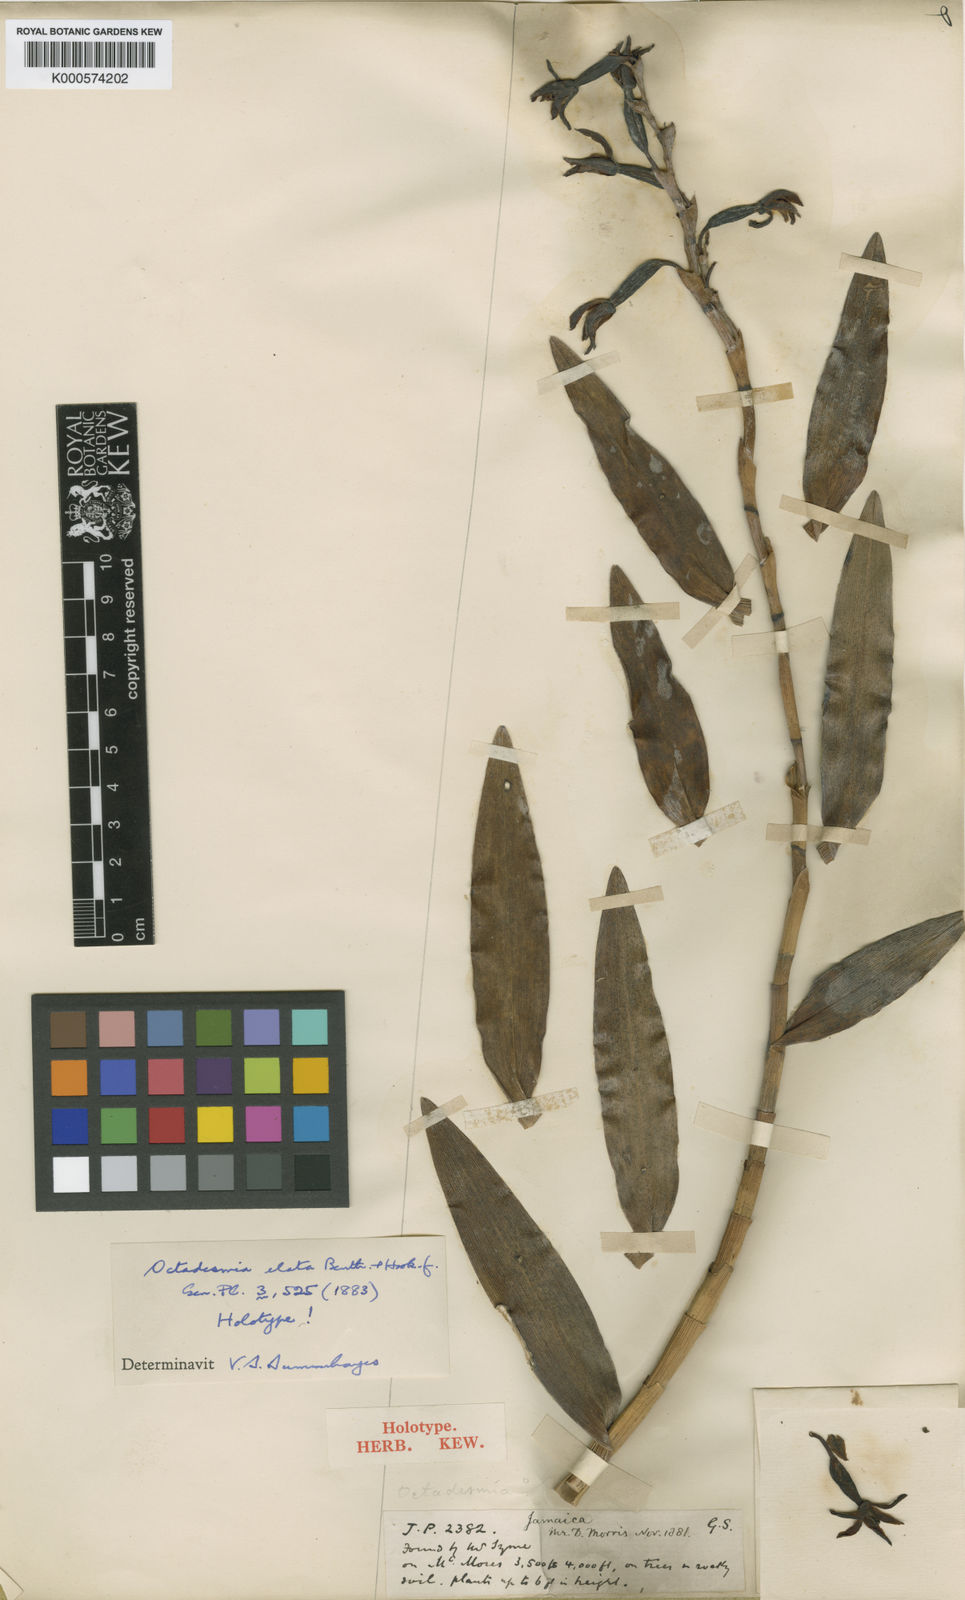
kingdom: Plantae
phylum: Tracheophyta
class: Liliopsida
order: Asparagales
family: Orchidaceae
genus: Dilomilis
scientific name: Dilomilis elata
